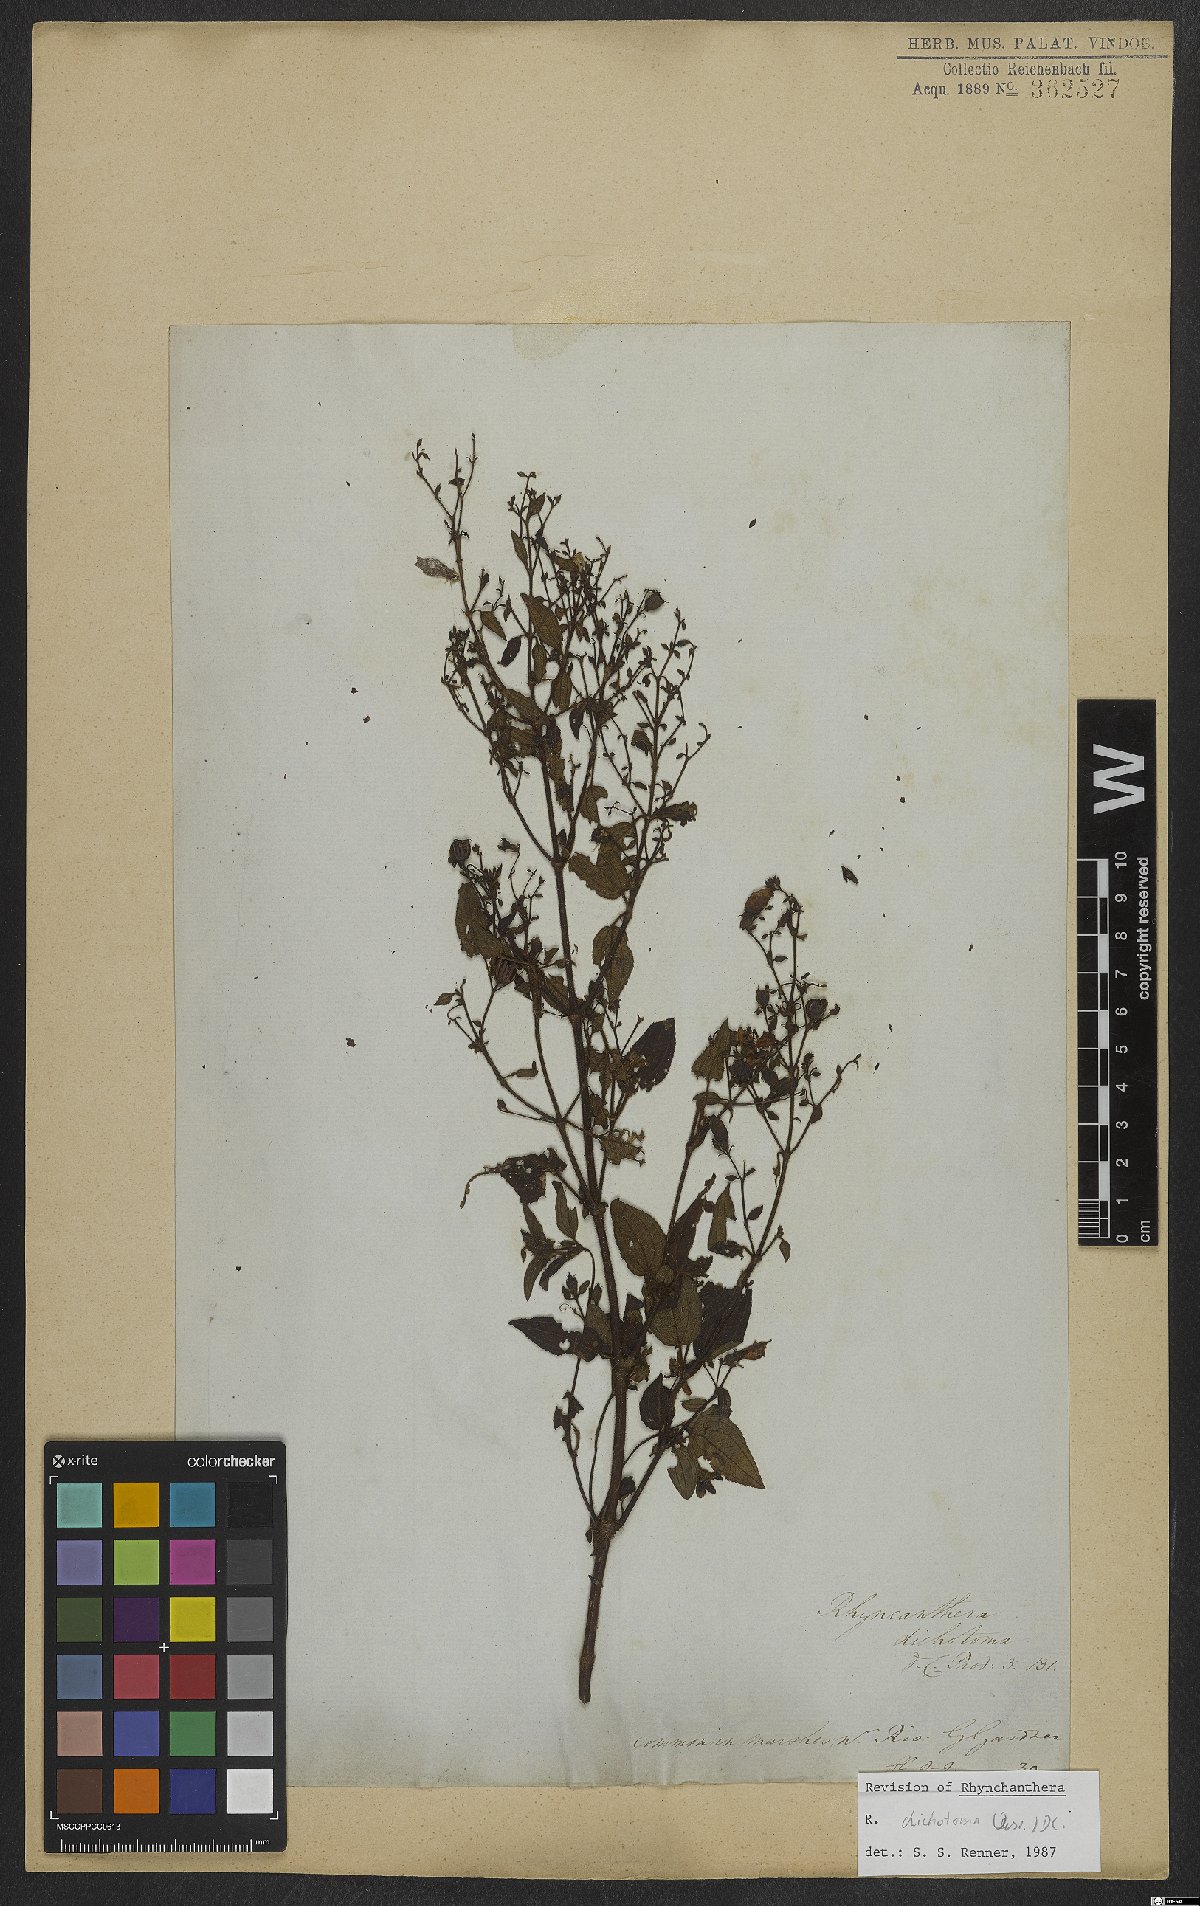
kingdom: Plantae
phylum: Tracheophyta
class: Magnoliopsida
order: Myrtales
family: Melastomataceae
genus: Rhynchanthera
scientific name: Rhynchanthera dichotoma
